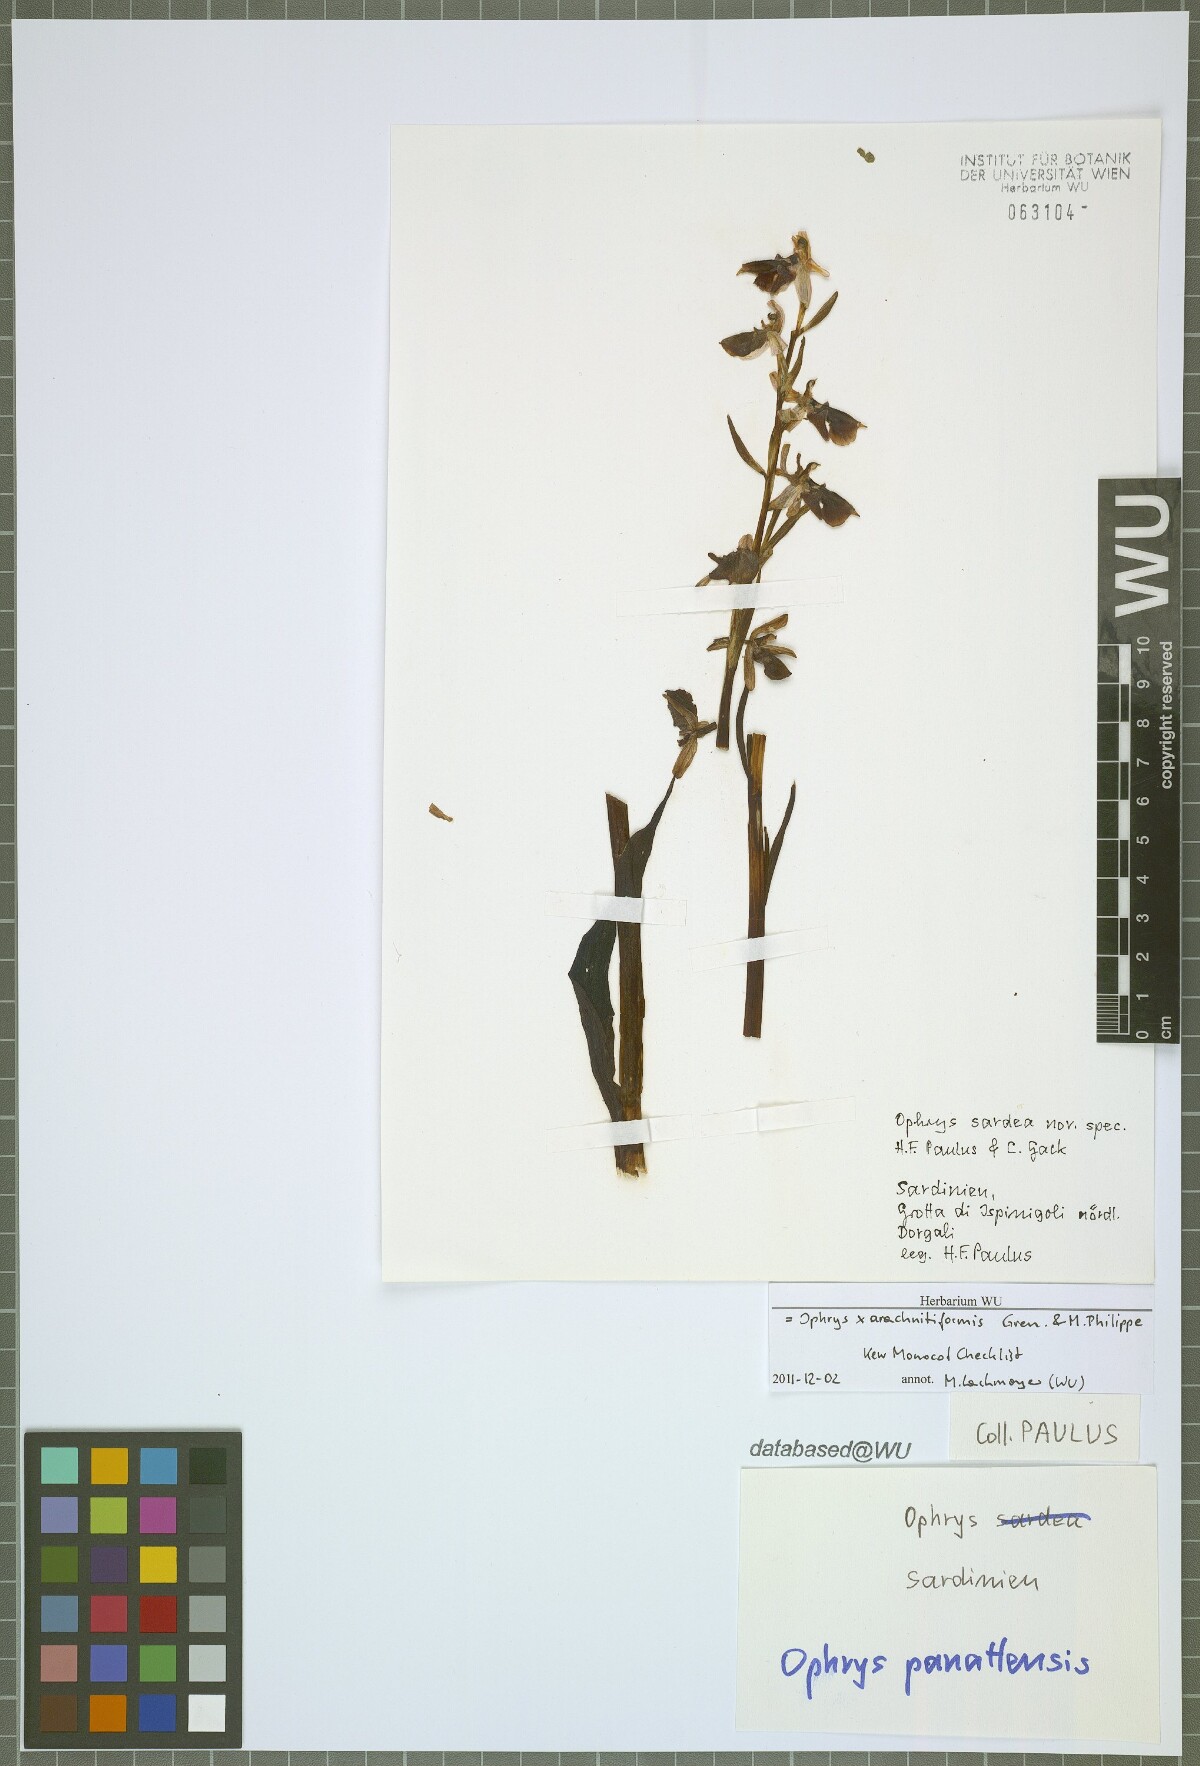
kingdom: Plantae
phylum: Tracheophyta
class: Liliopsida
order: Asparagales
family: Orchidaceae
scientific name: Orchidaceae
